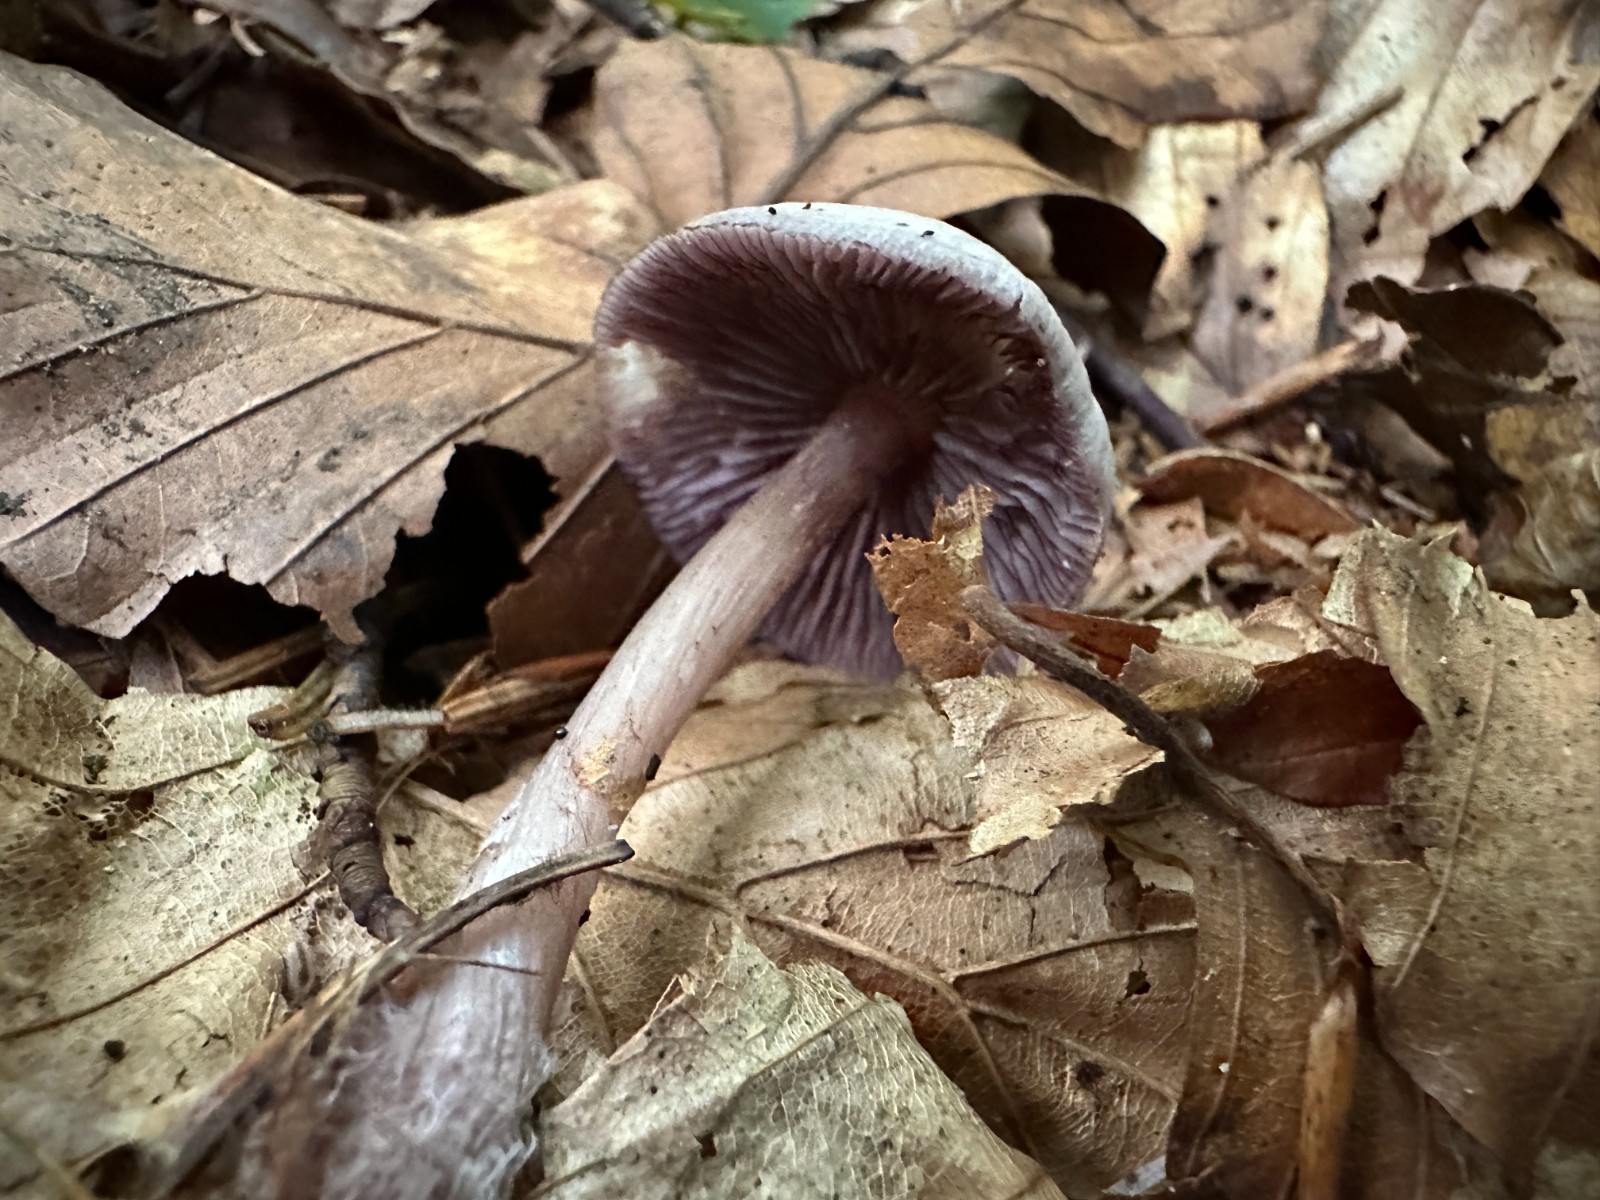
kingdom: Fungi
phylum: Basidiomycota
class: Agaricomycetes
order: Agaricales
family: Mycenaceae
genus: Mycena
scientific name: Mycena pelianthina
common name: mørkbladet huesvamp
